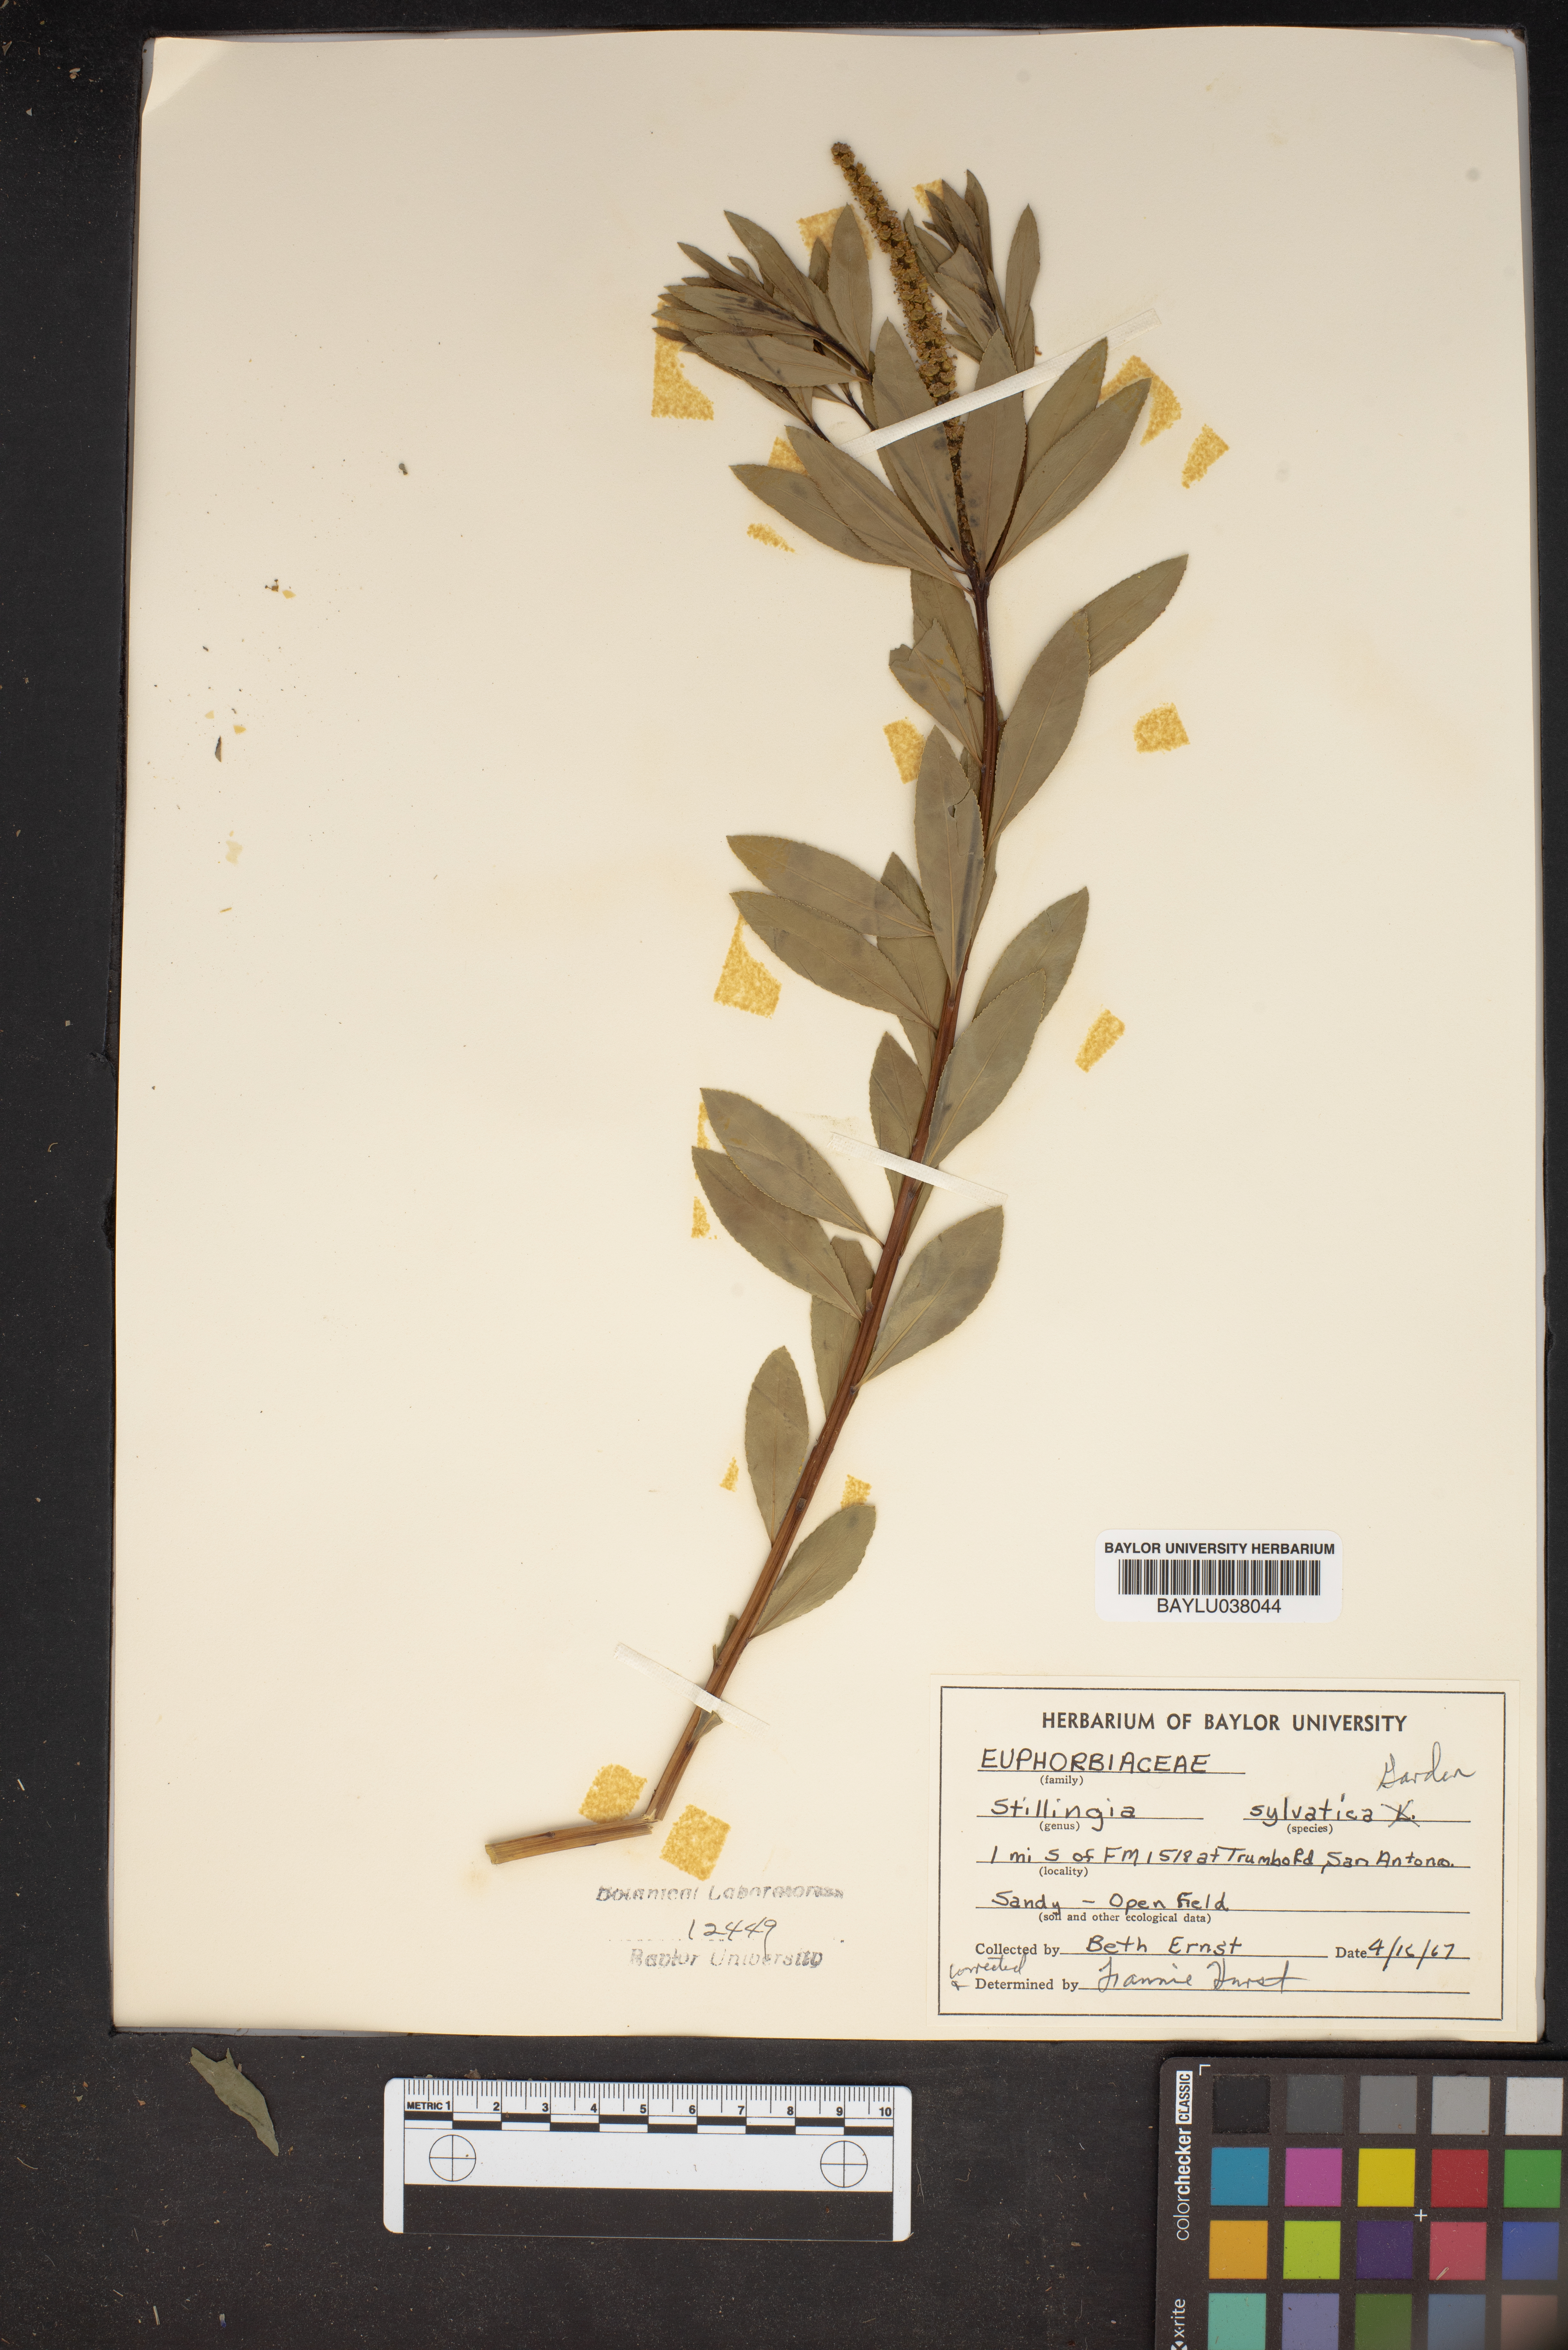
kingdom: Plantae
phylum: Tracheophyta
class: Magnoliopsida
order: Malpighiales
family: Euphorbiaceae
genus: Stillingia
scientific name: Stillingia sylvatica
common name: Queen's-delight
